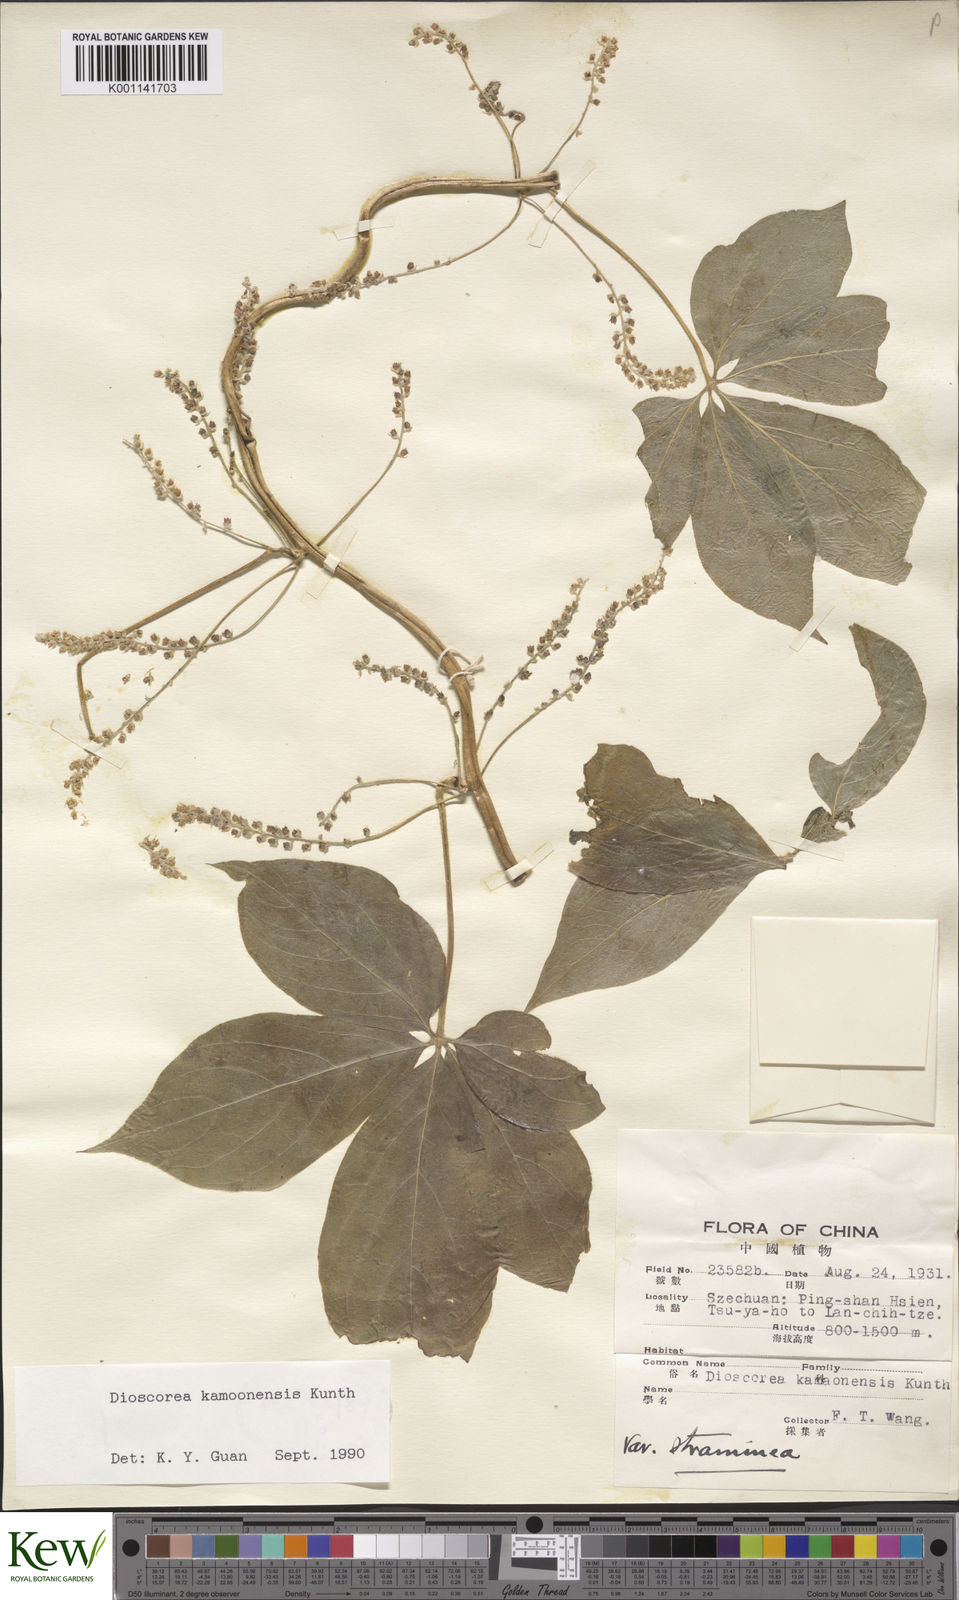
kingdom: Plantae
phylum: Tracheophyta
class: Liliopsida
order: Dioscoreales
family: Dioscoreaceae
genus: Dioscorea
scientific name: Dioscorea kamoonensis
